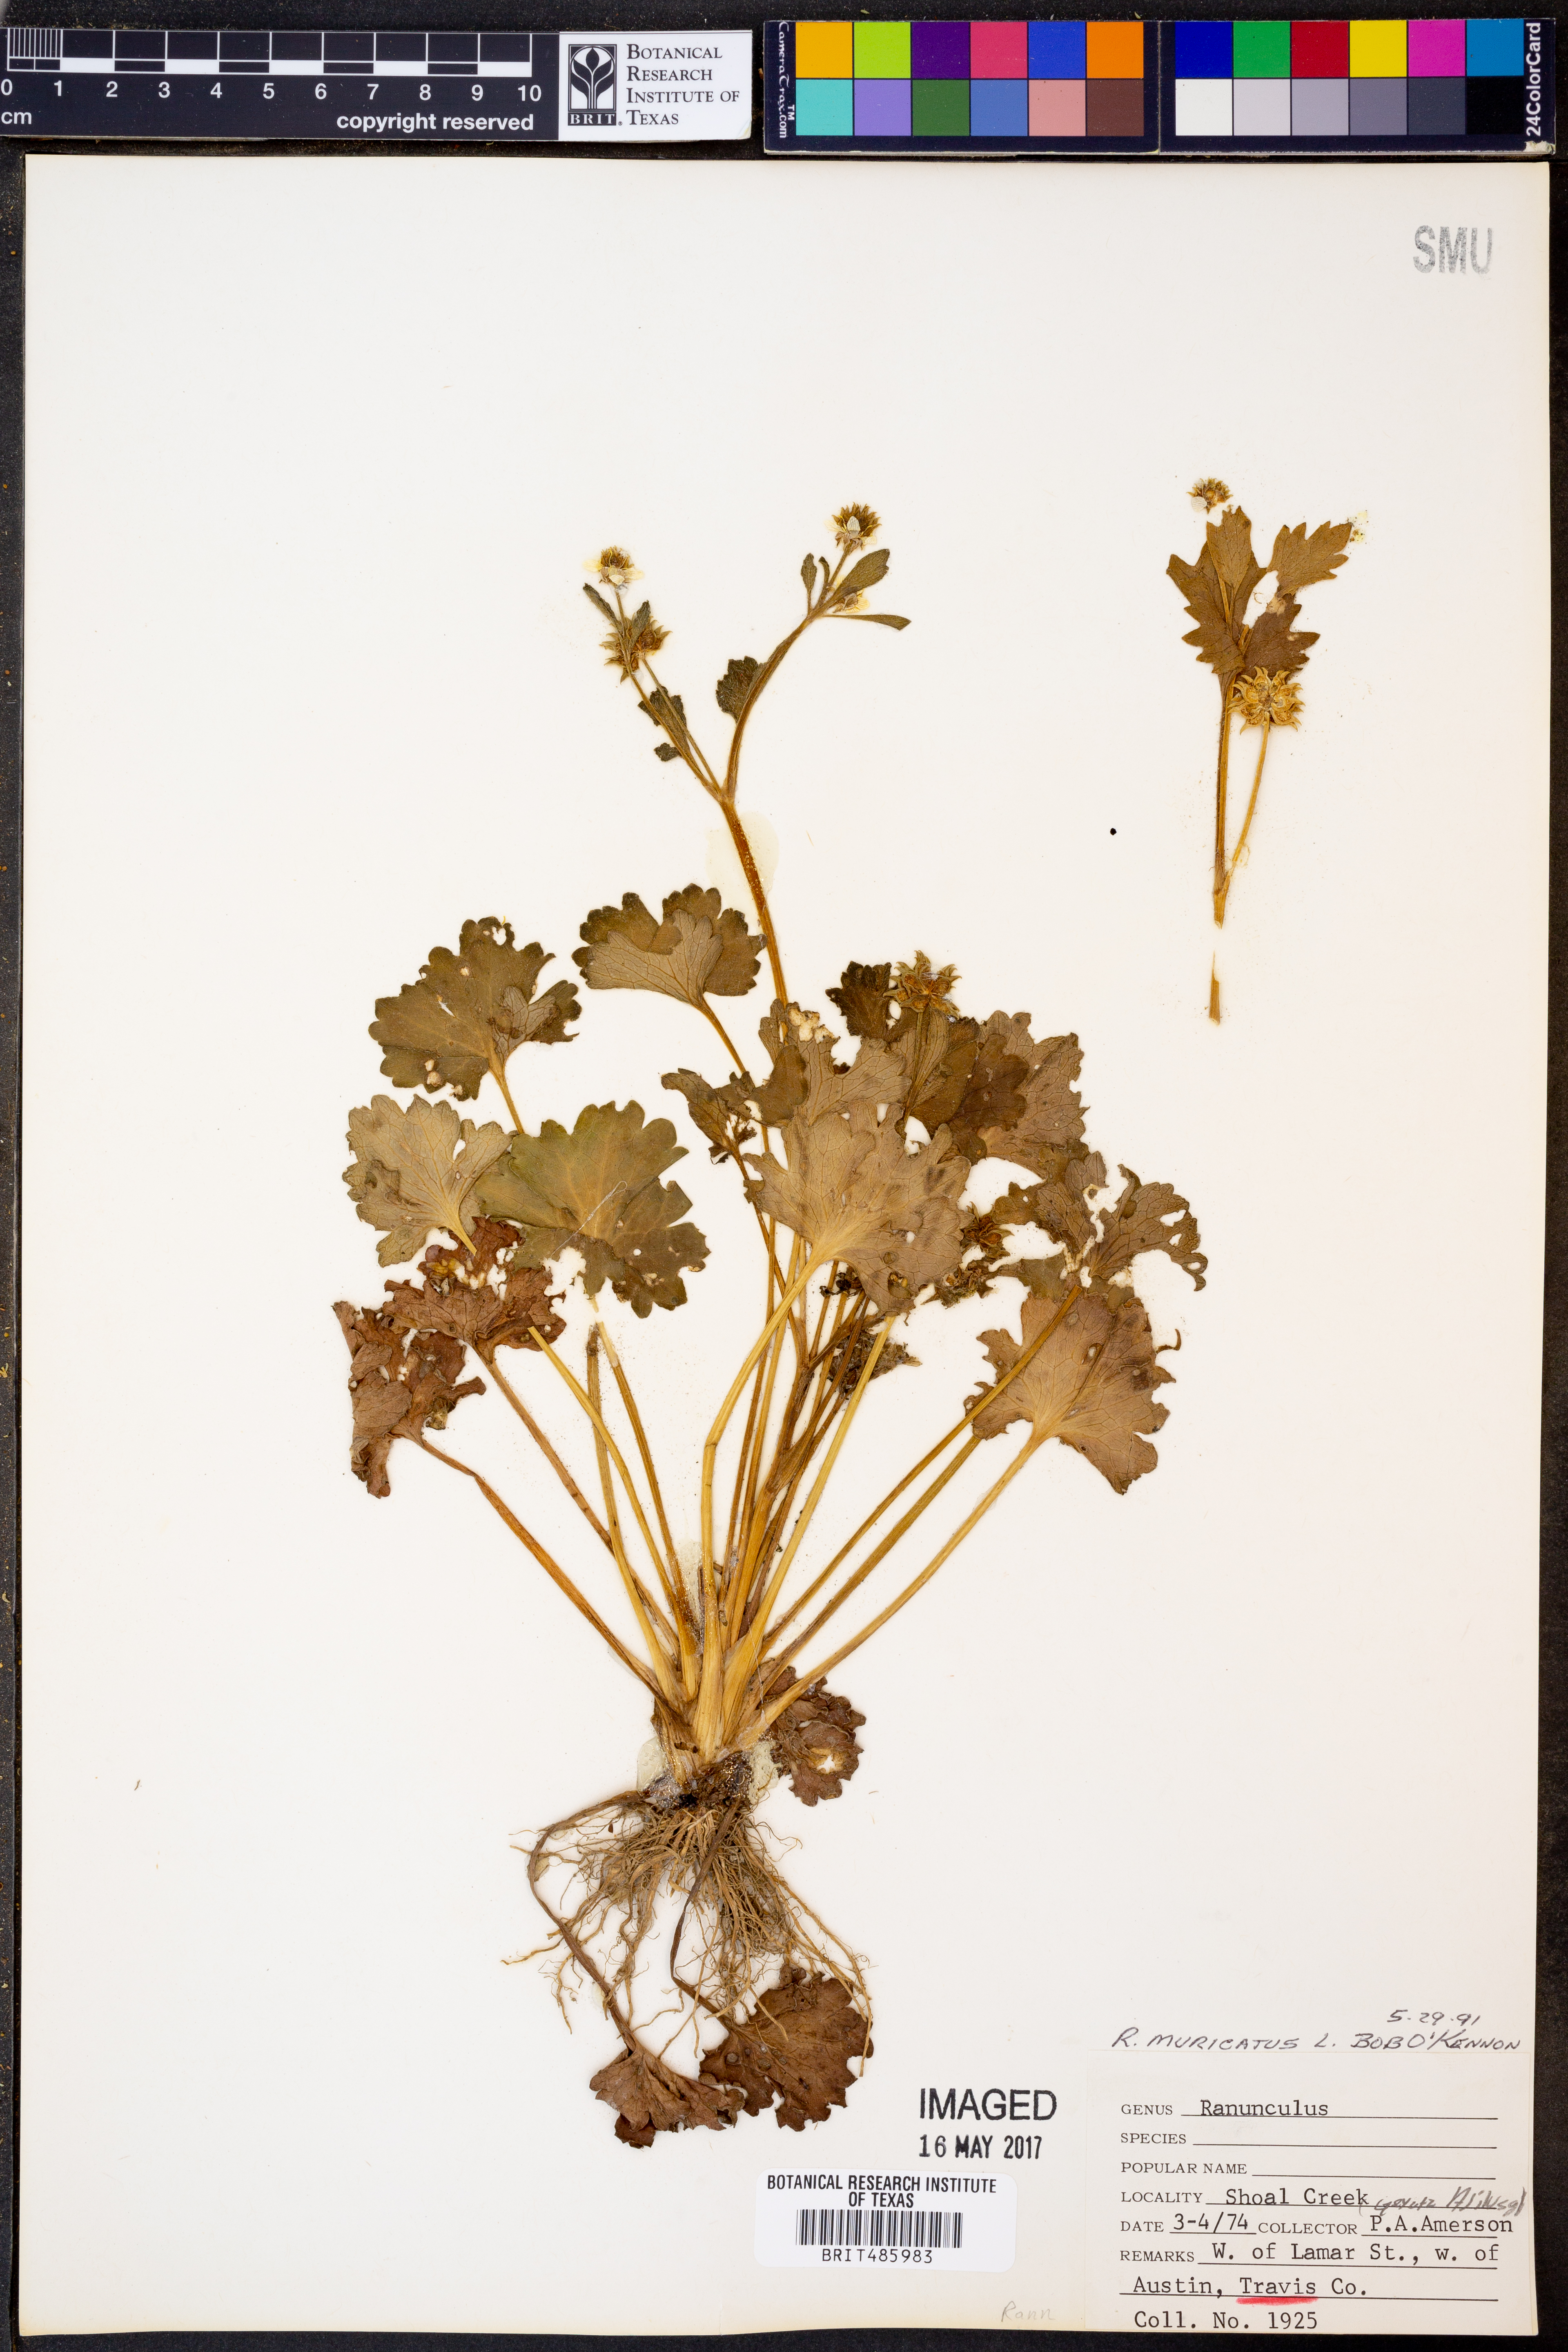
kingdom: Plantae
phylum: Tracheophyta
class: Magnoliopsida
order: Ranunculales
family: Ranunculaceae
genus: Ranunculus
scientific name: Ranunculus muricatus
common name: Rough-fruited buttercup
